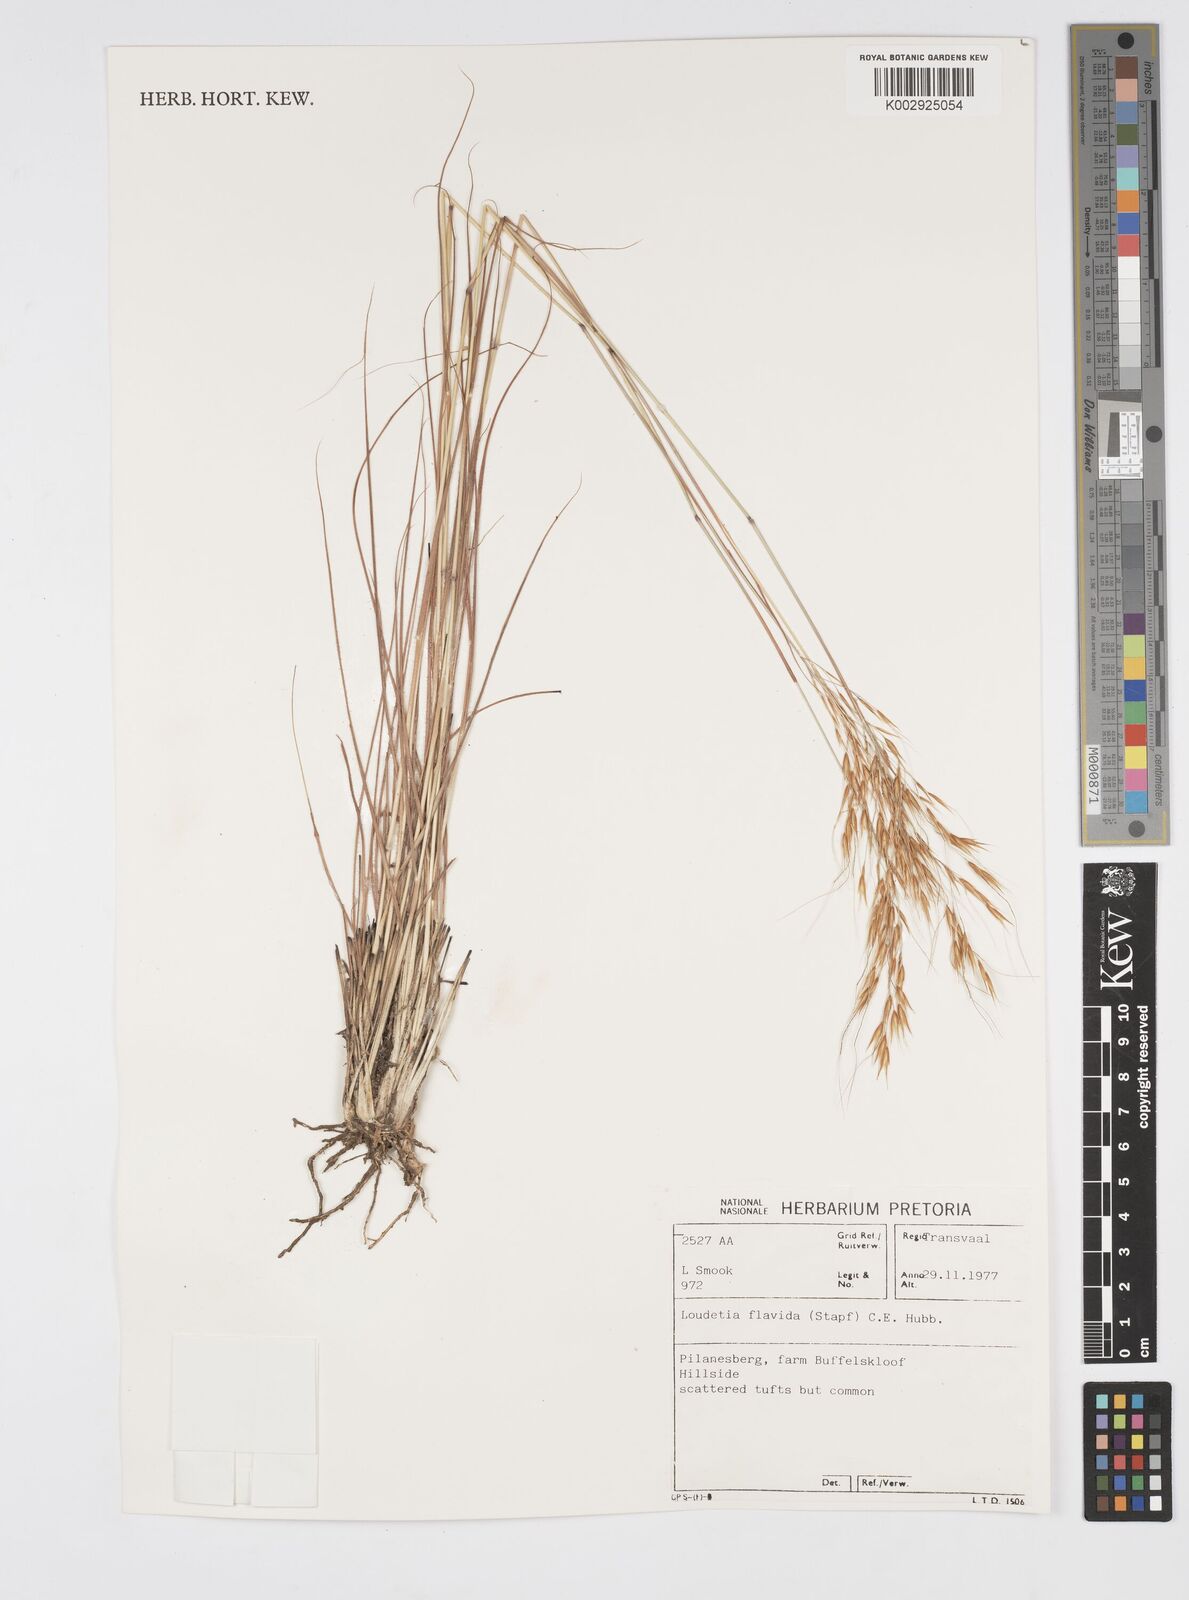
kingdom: Plantae
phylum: Tracheophyta
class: Liliopsida
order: Poales
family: Poaceae
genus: Loudetia
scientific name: Loudetia flavida
